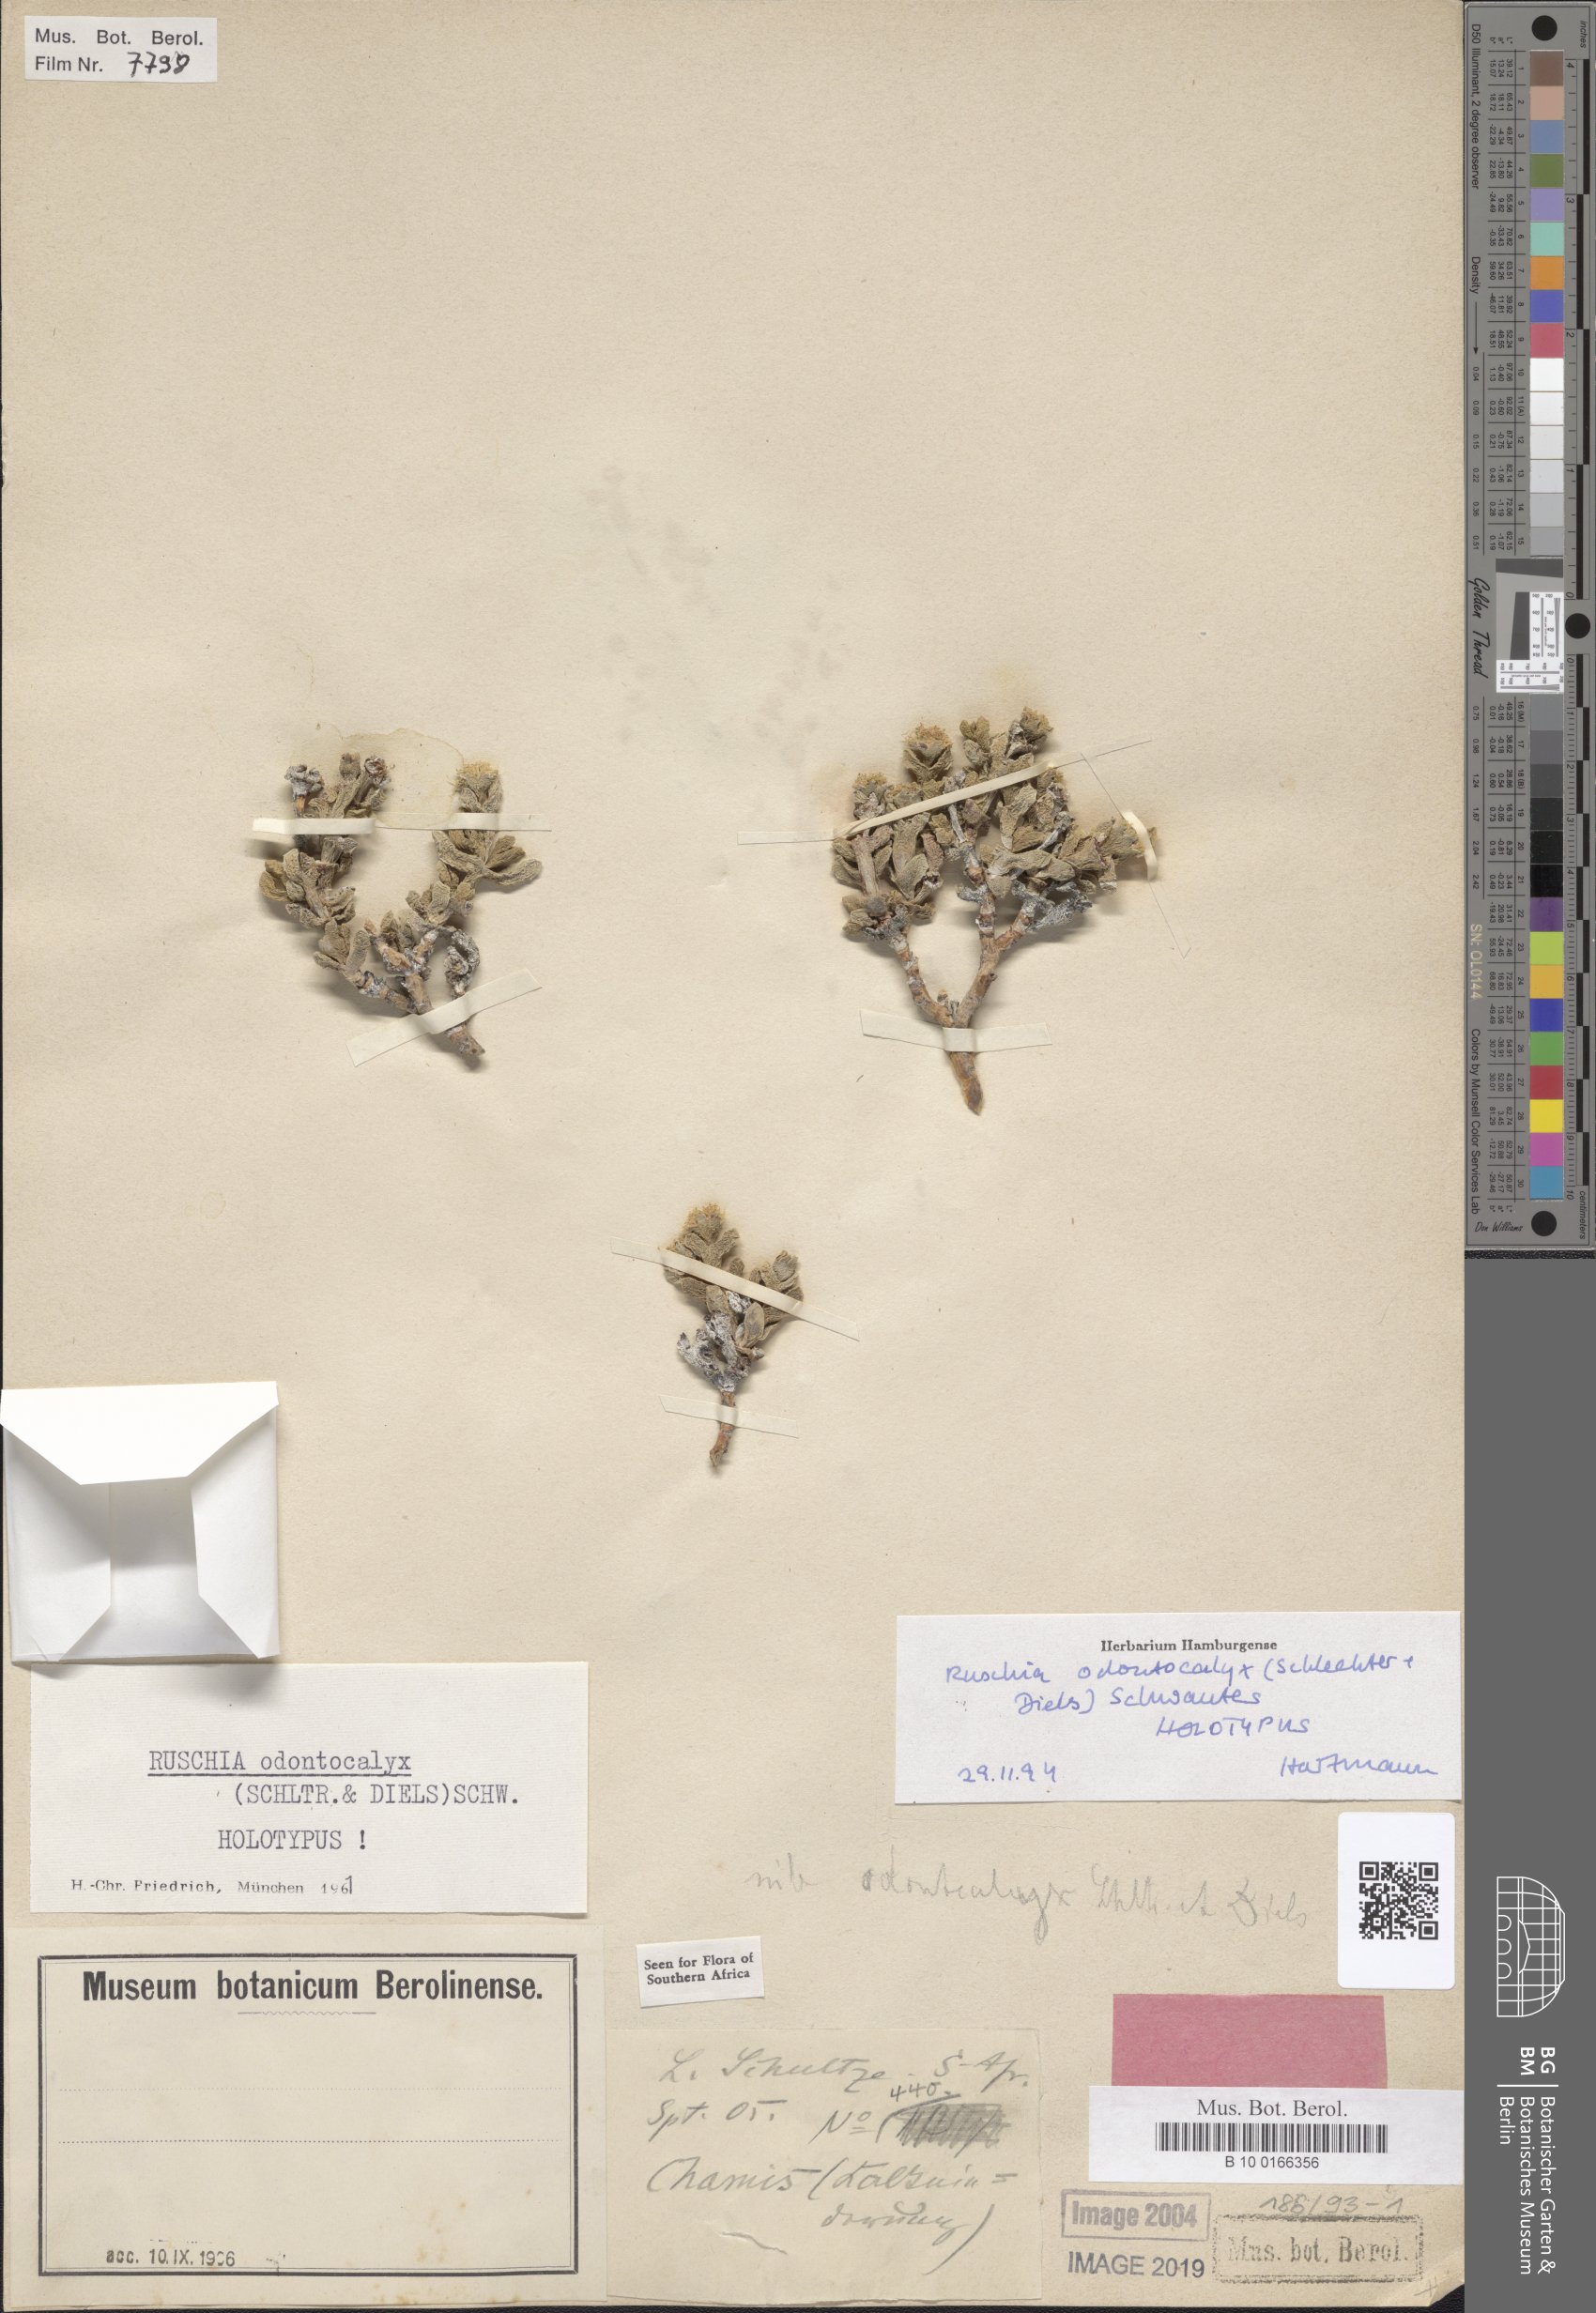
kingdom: Plantae
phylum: Tracheophyta
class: Magnoliopsida
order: Caryophyllales
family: Aizoaceae
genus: Ruschia
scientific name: Ruschia odontocalyx
